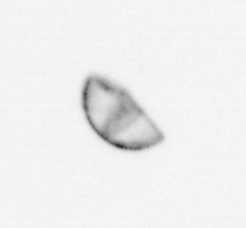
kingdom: Chromista
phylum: Ochrophyta
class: Bacillariophyceae
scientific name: Bacillariophyceae
